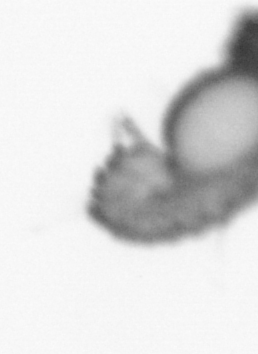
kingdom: Animalia
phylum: Annelida
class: Polychaeta
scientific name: Polychaeta
